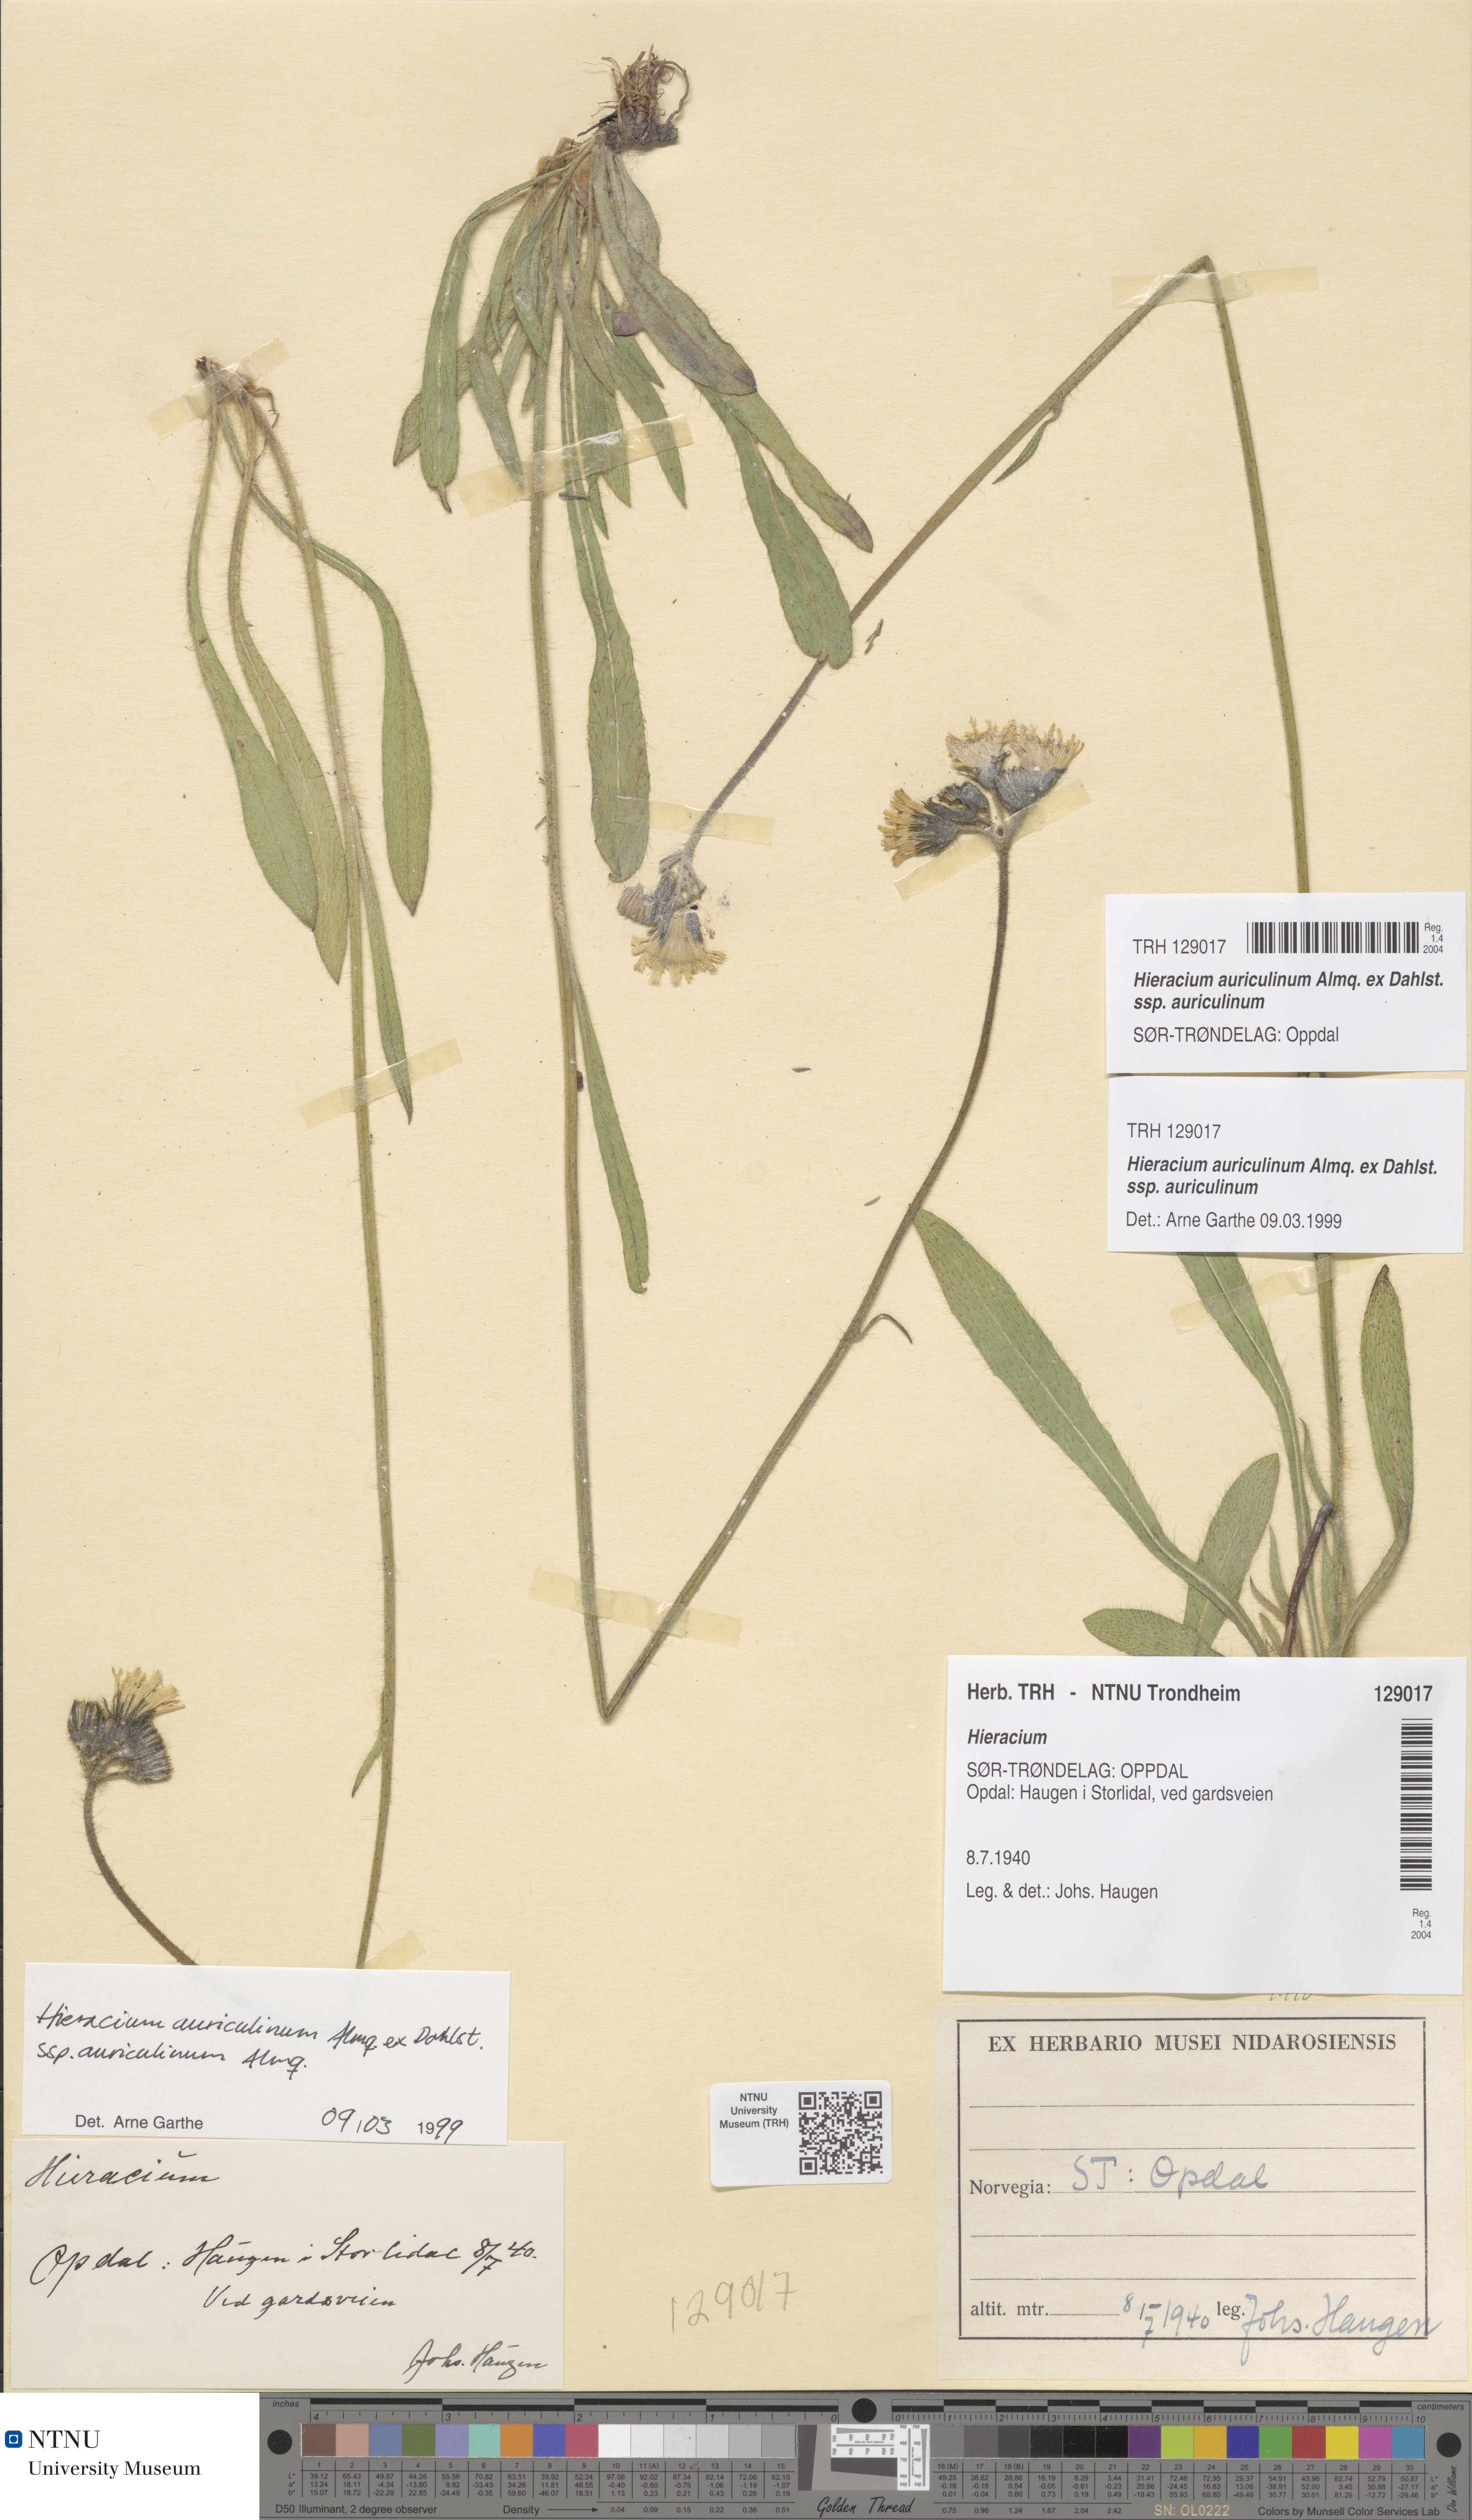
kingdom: Plantae
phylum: Tracheophyta
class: Magnoliopsida
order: Asterales
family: Asteraceae
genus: Pilosella
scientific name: Pilosella dubia
